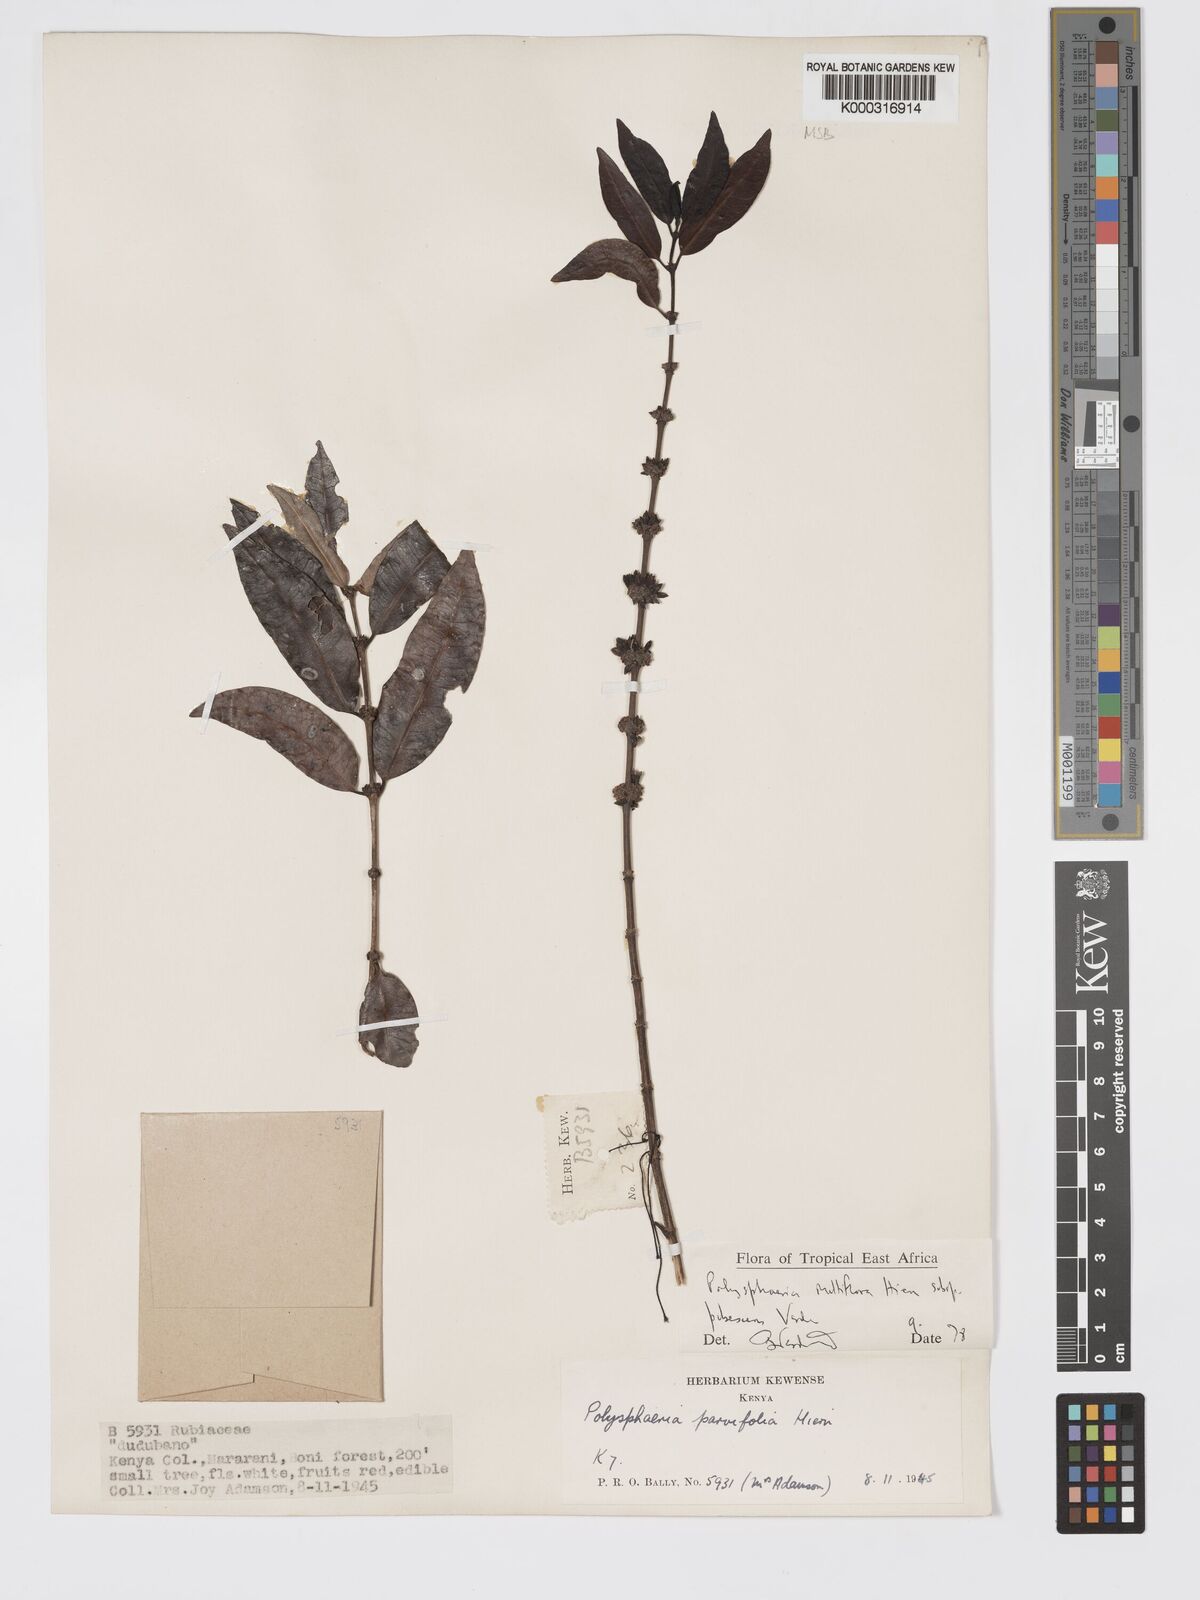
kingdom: Plantae
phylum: Tracheophyta
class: Magnoliopsida
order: Gentianales
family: Rubiaceae
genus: Polysphaeria
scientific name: Polysphaeria multiflora
